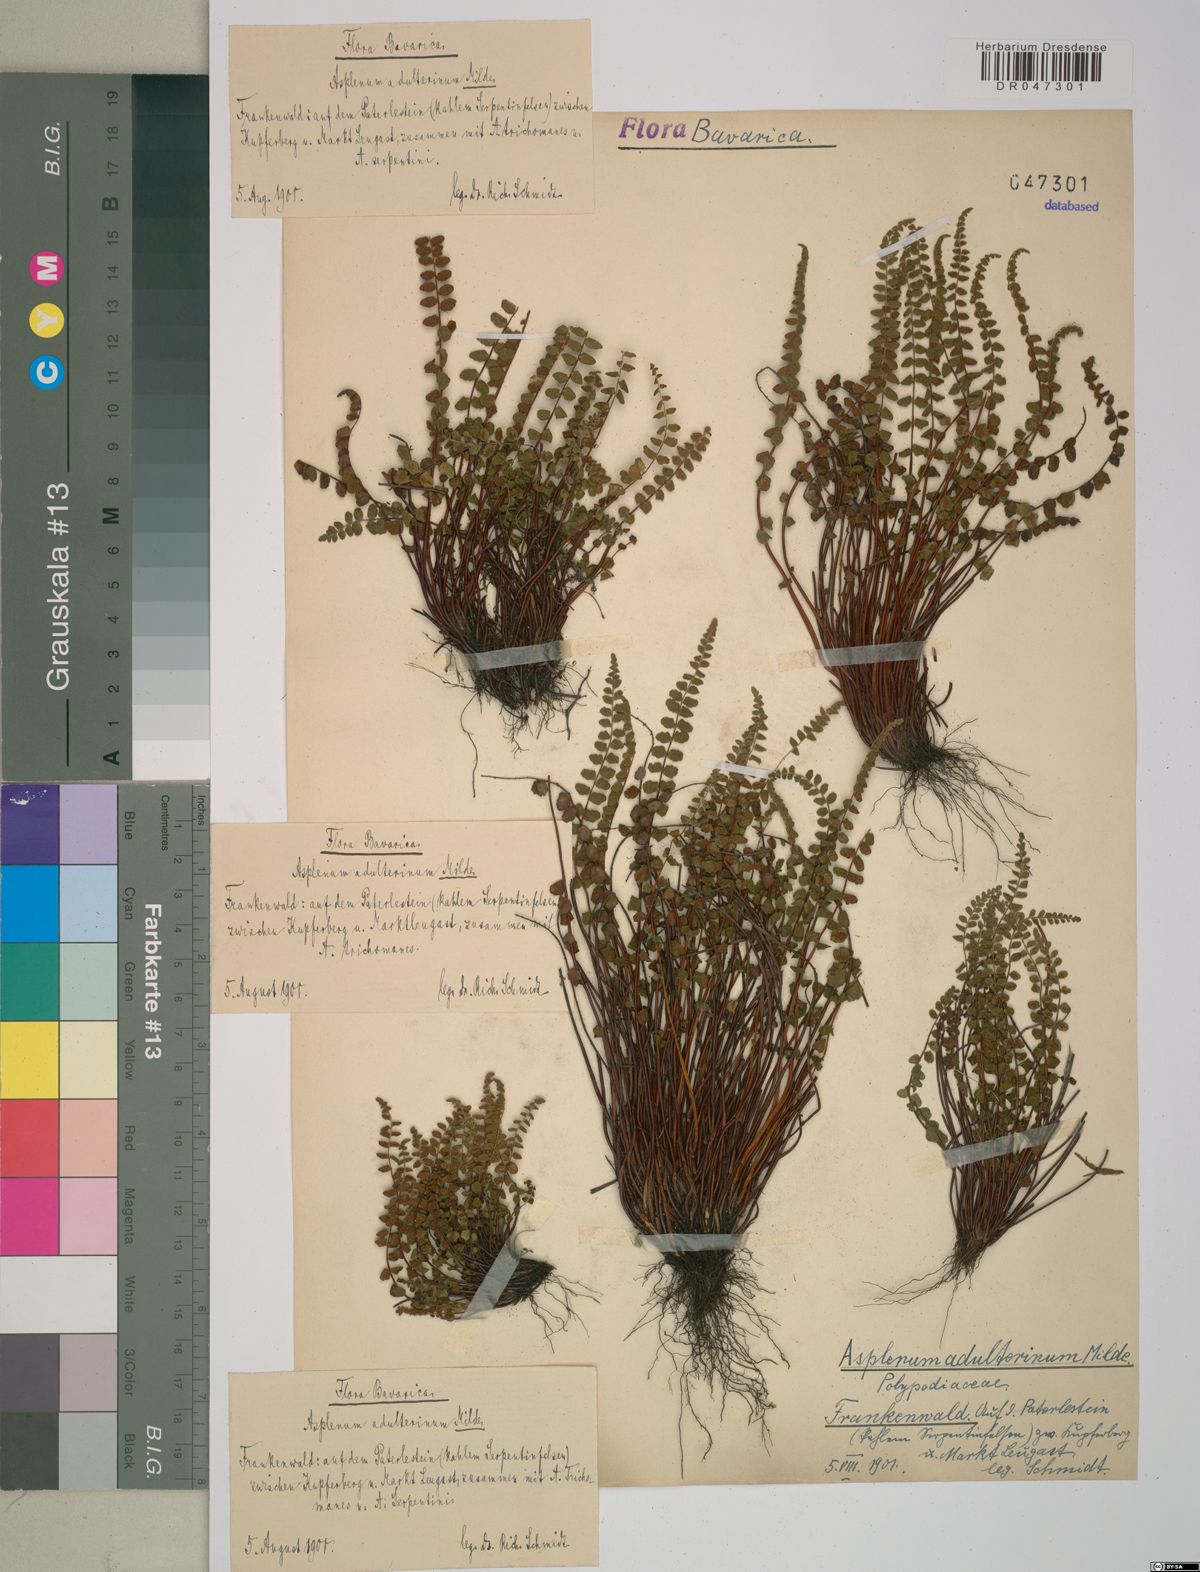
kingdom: Plantae
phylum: Tracheophyta
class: Polypodiopsida
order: Polypodiales
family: Aspleniaceae
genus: Asplenium
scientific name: Asplenium adulterinum
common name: Adulterated spleenwort
